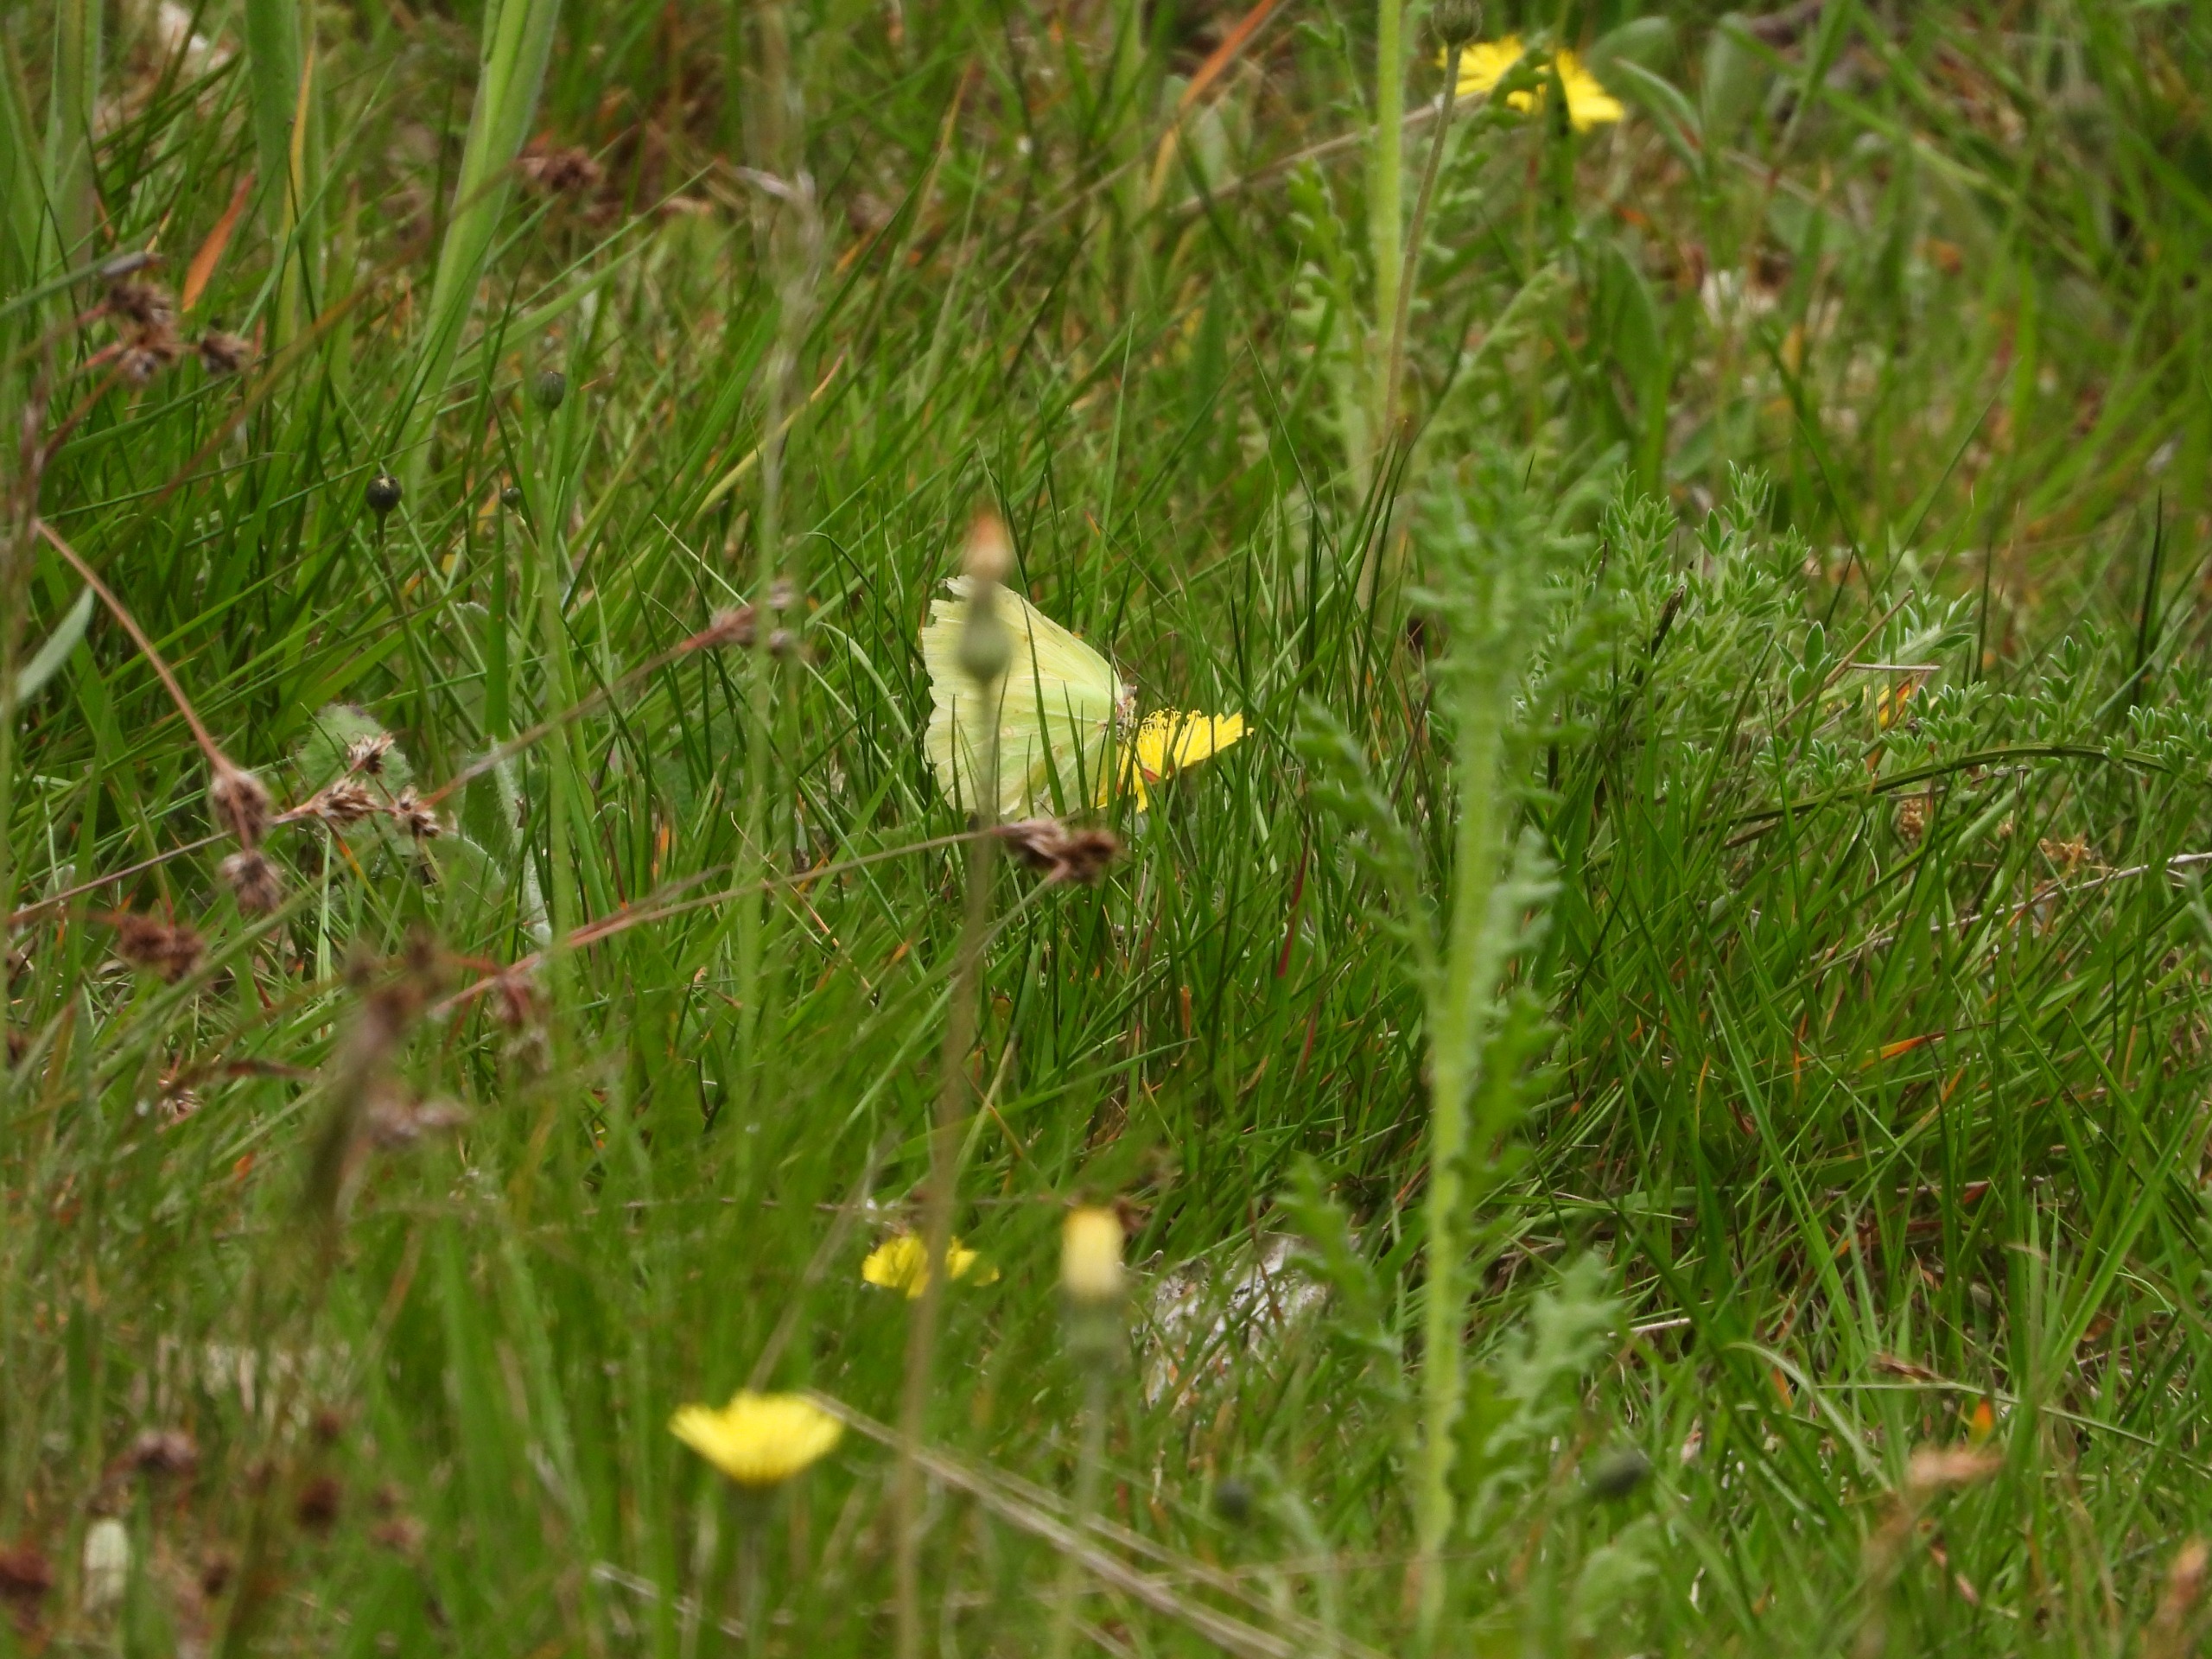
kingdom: Animalia
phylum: Arthropoda
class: Insecta
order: Lepidoptera
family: Pieridae
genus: Gonepteryx
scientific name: Gonepteryx rhamni
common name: Citronsommerfugl
